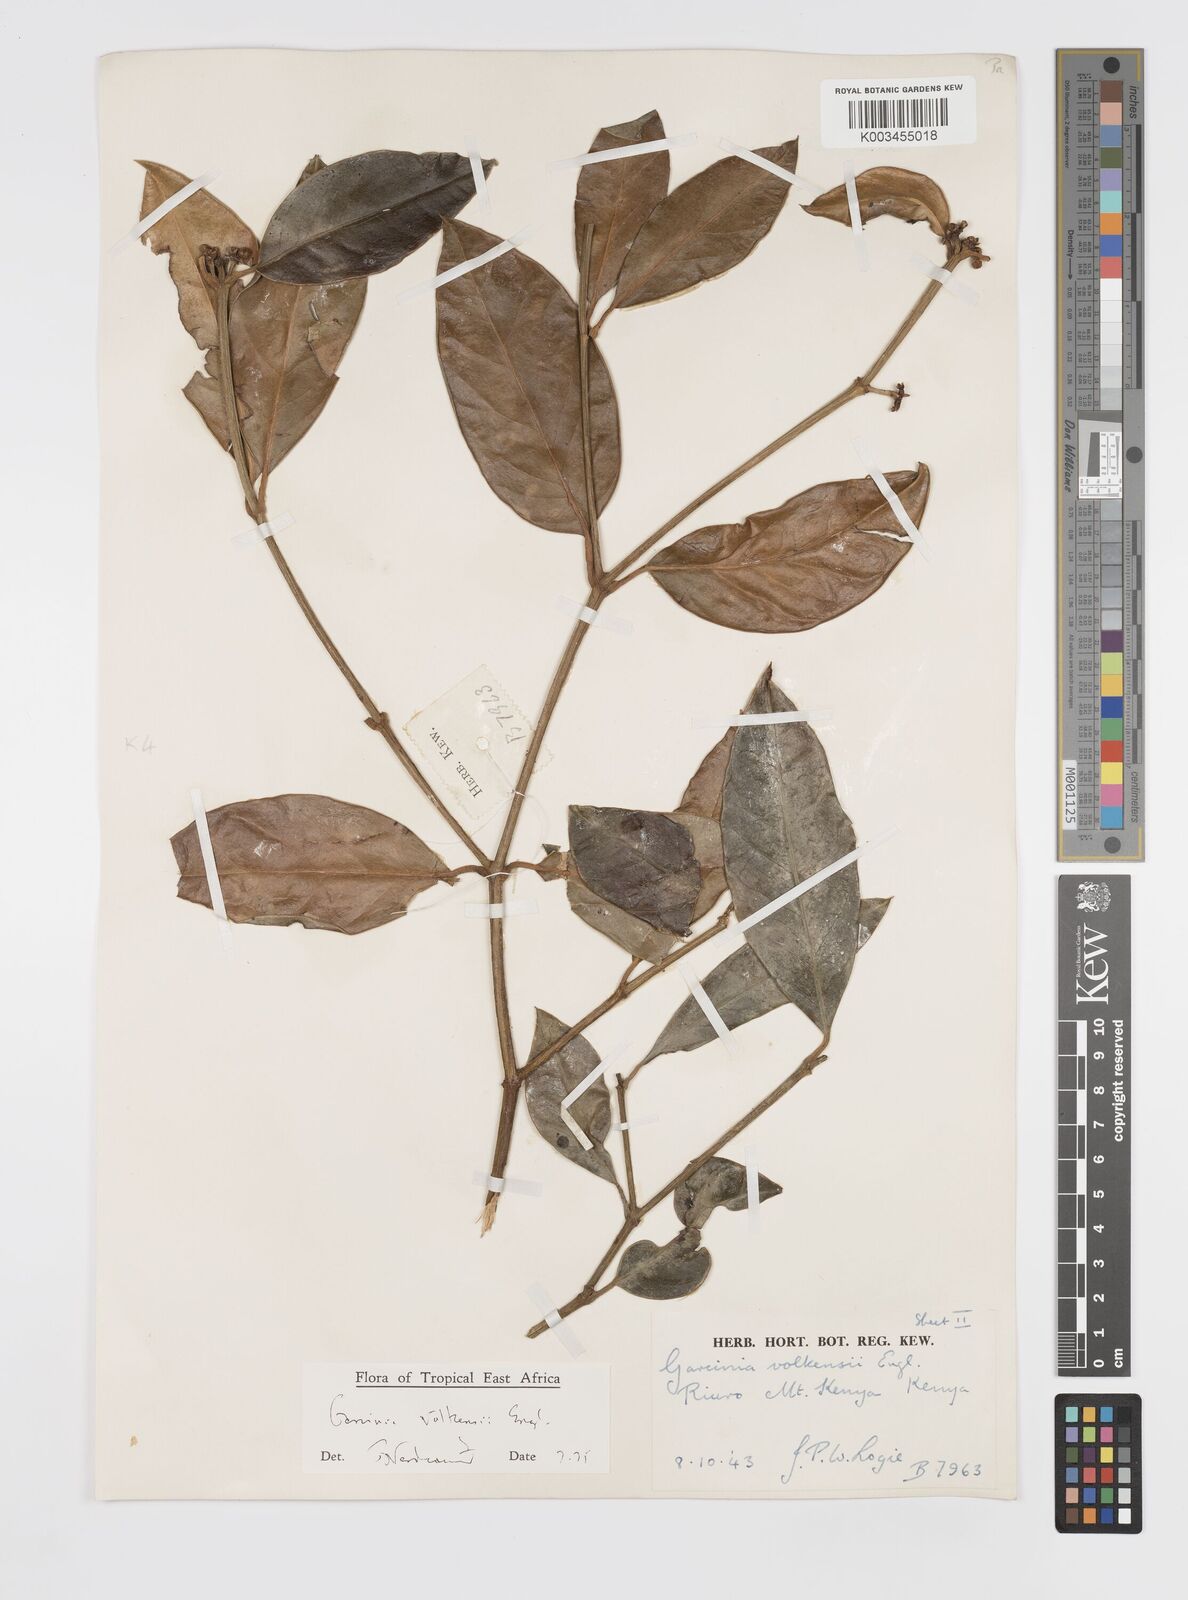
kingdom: Plantae
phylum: Tracheophyta
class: Magnoliopsida
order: Malpighiales
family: Clusiaceae
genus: Garcinia
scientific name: Garcinia volkensii
